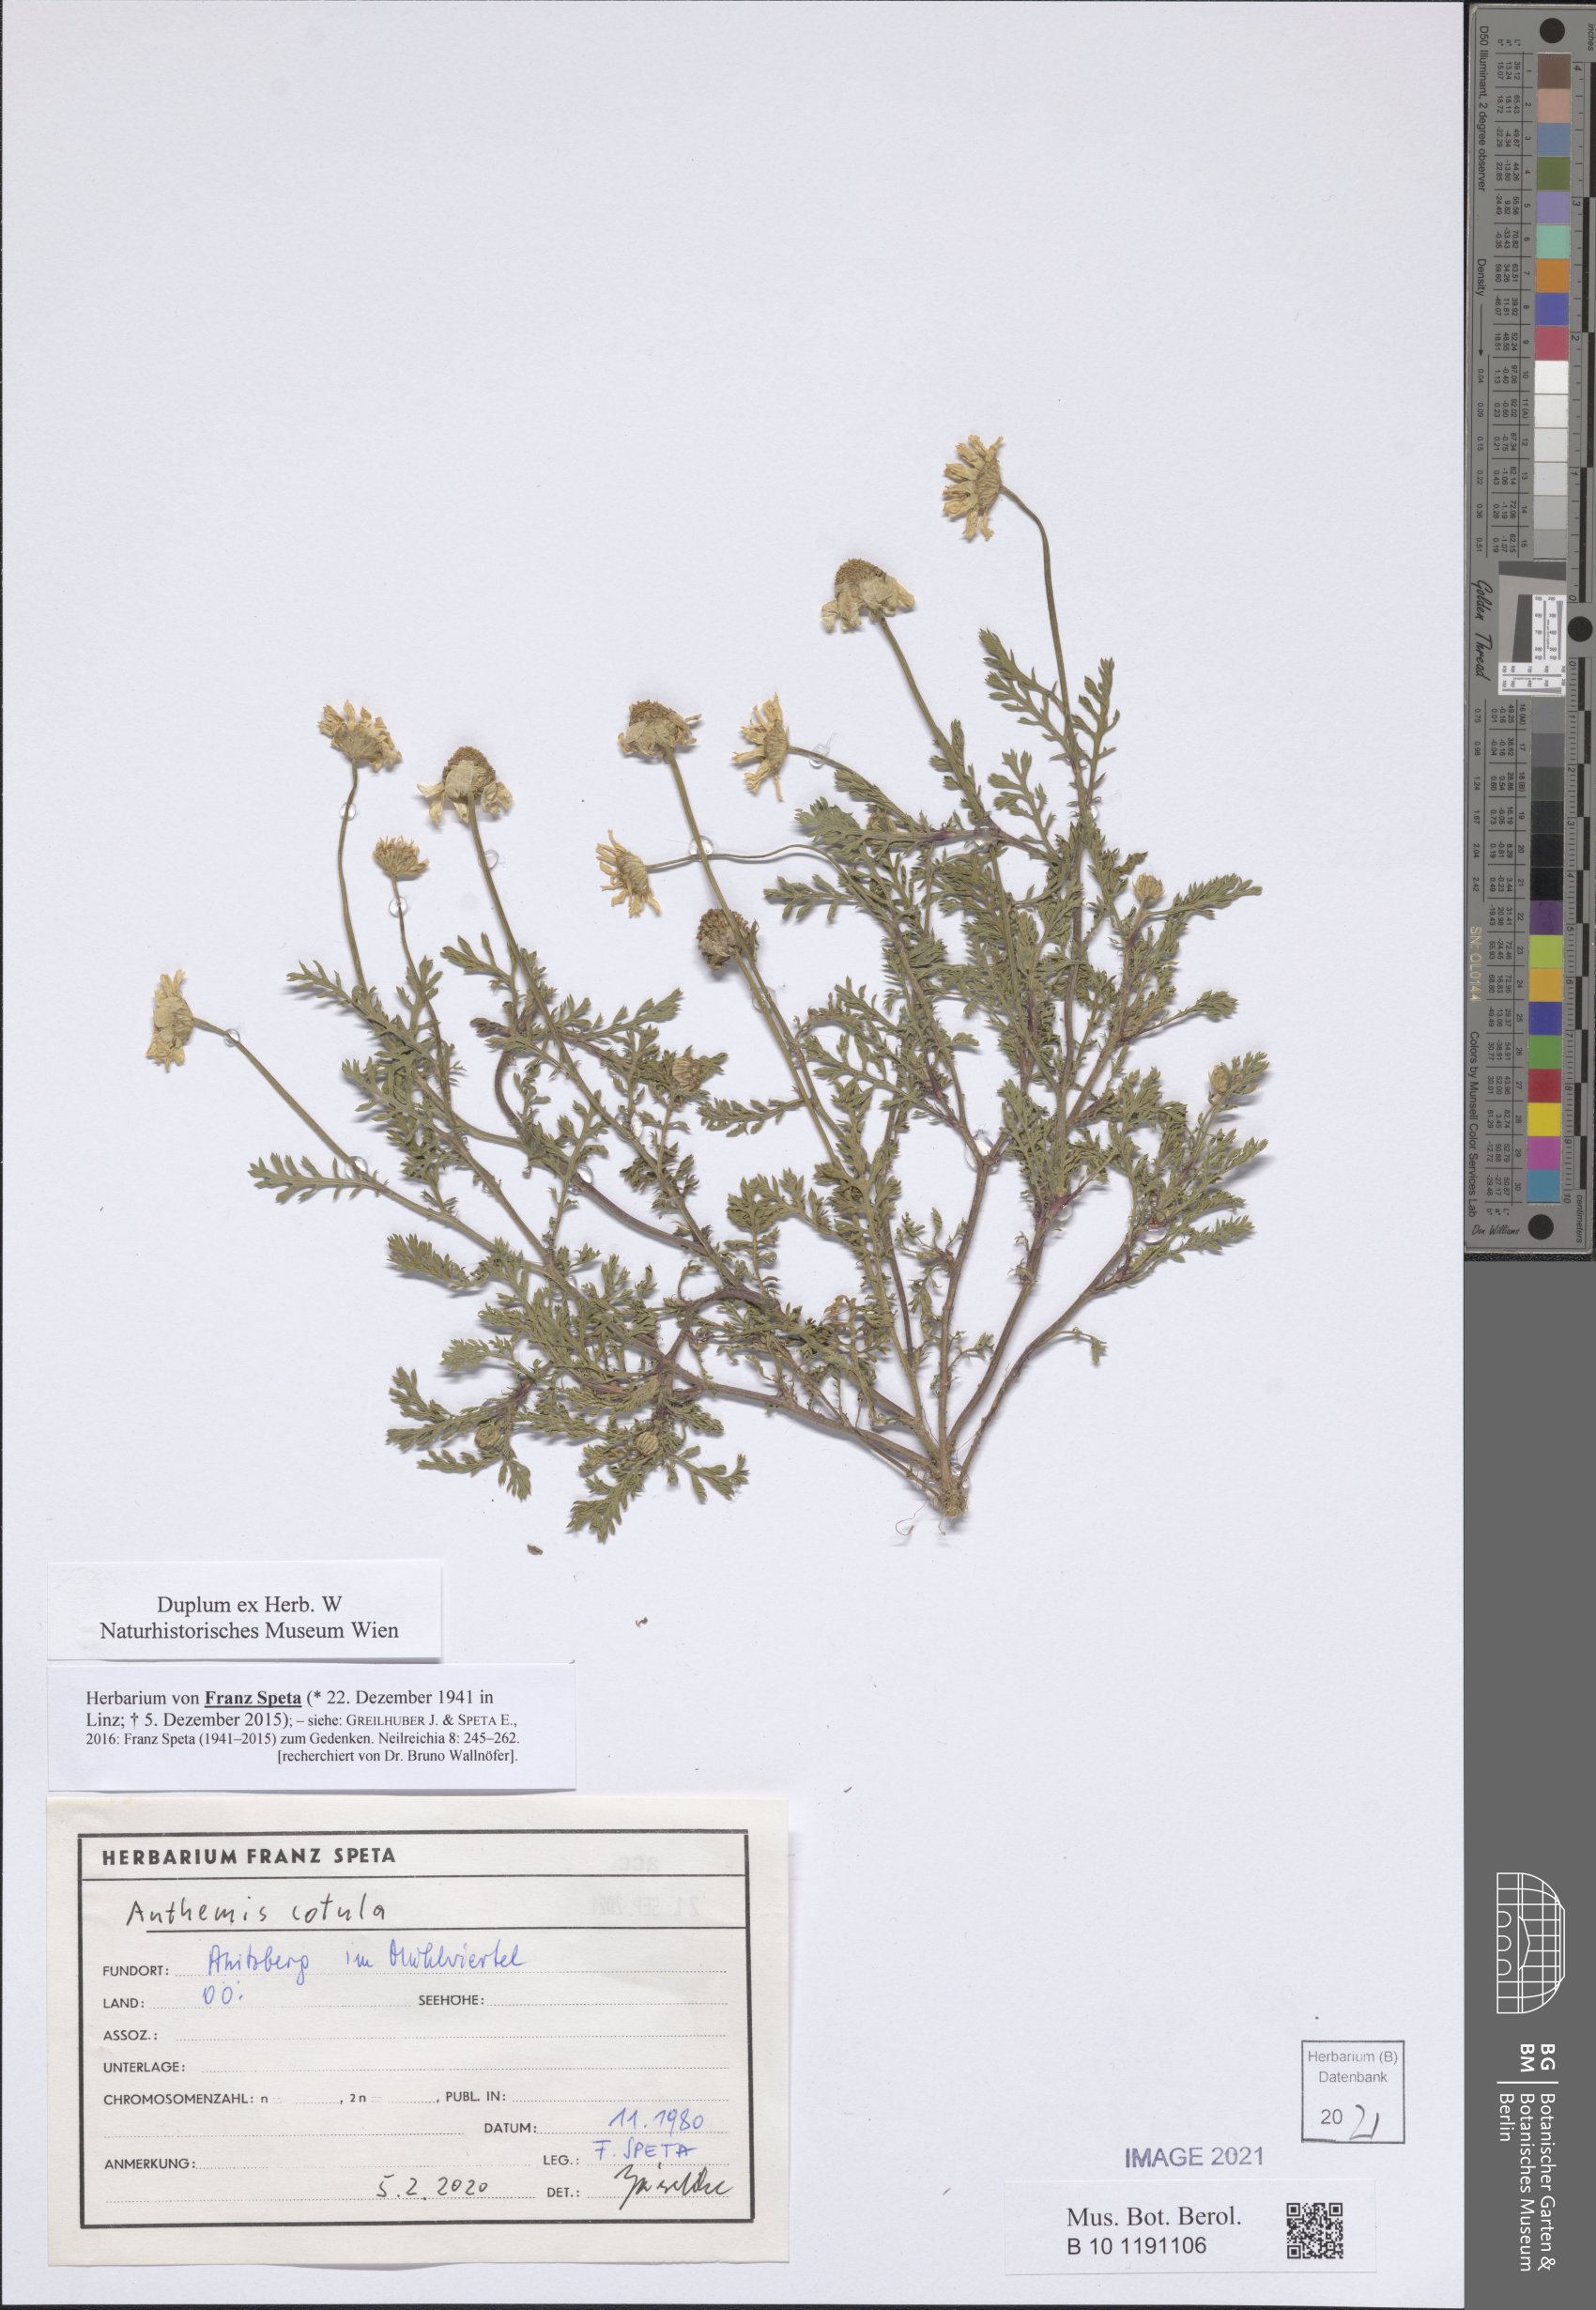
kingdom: Plantae
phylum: Tracheophyta
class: Magnoliopsida
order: Asterales
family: Asteraceae
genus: Anthemis
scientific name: Anthemis cotula
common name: Stinking chamomile
